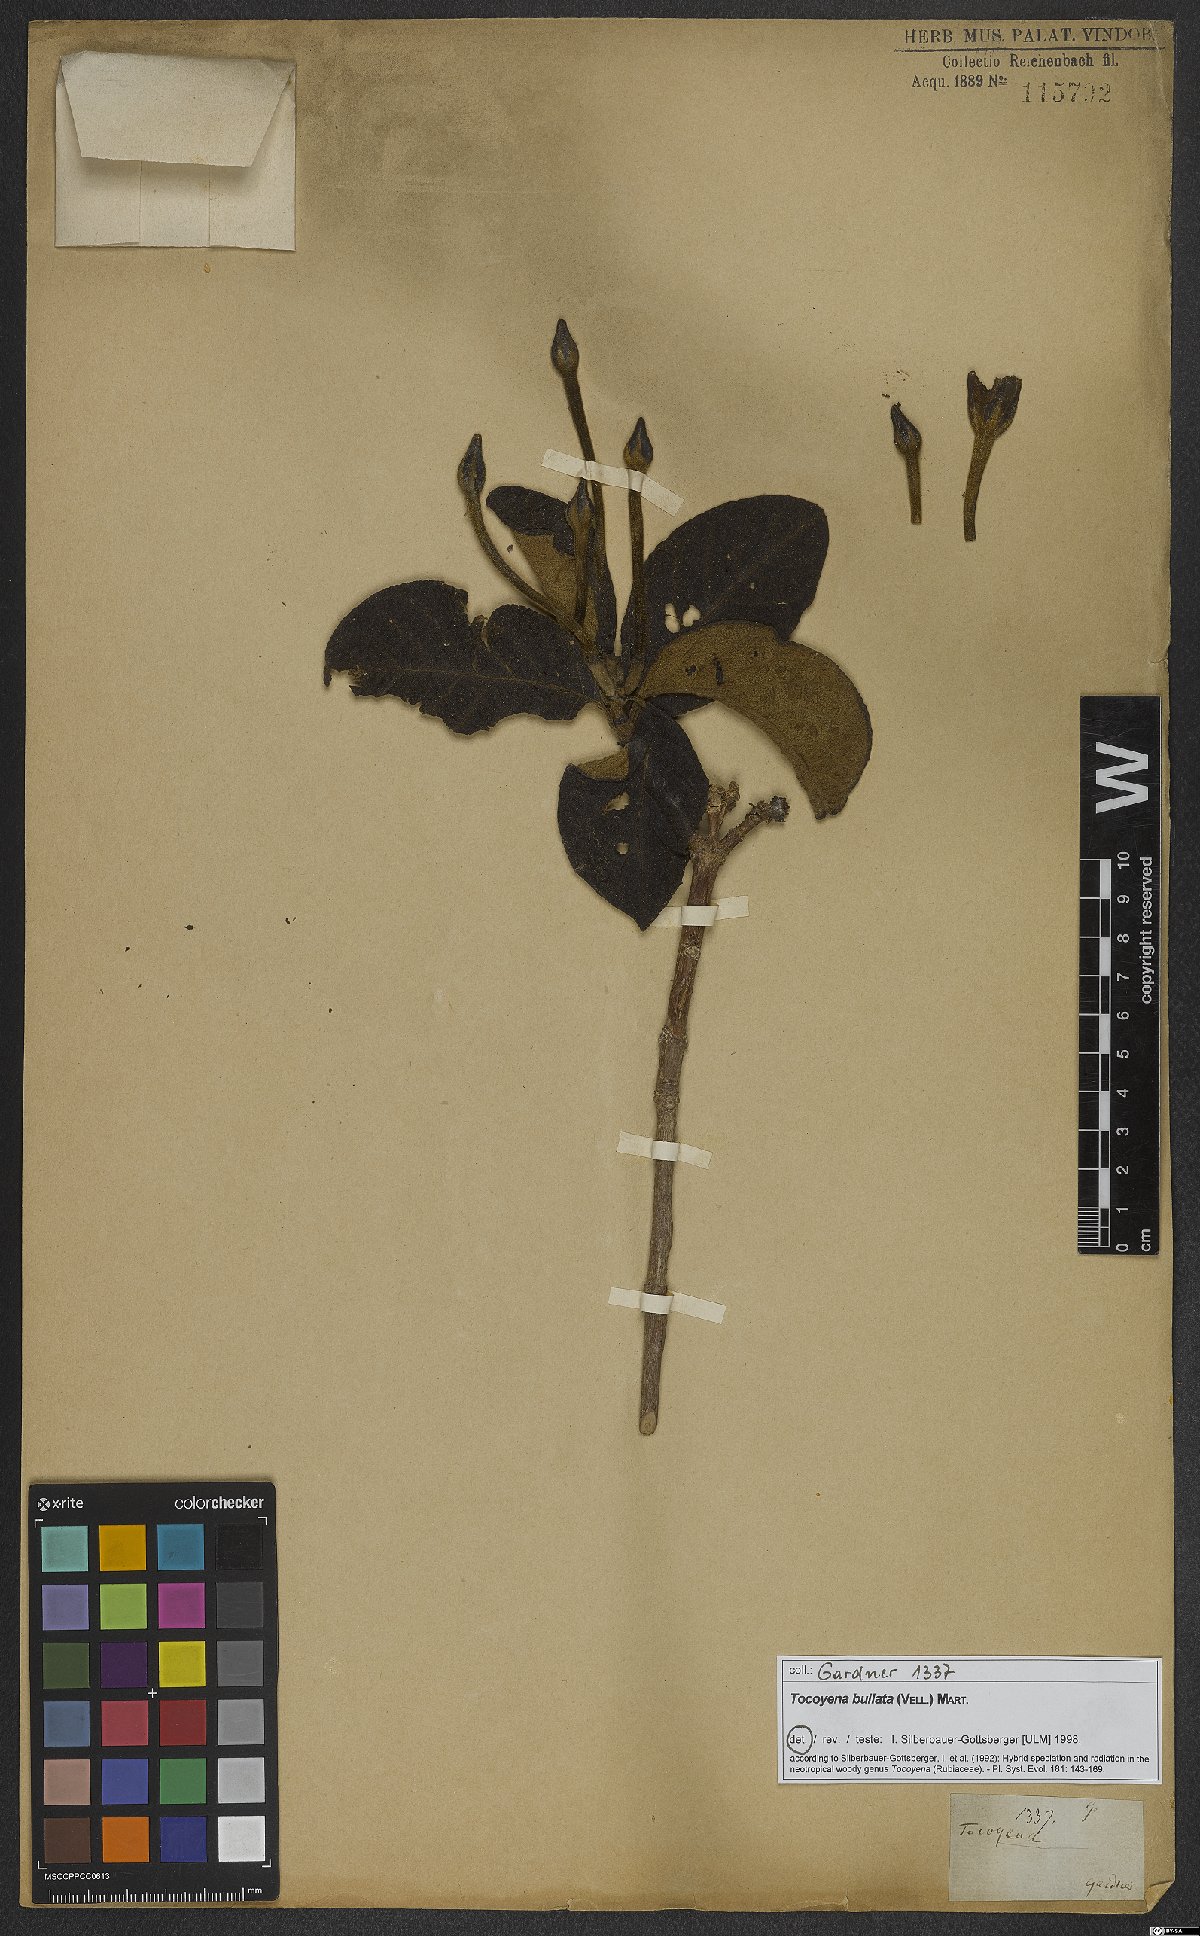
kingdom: Plantae
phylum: Tracheophyta
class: Magnoliopsida
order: Gentianales
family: Rubiaceae
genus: Tocoyena
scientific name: Tocoyena bullata
